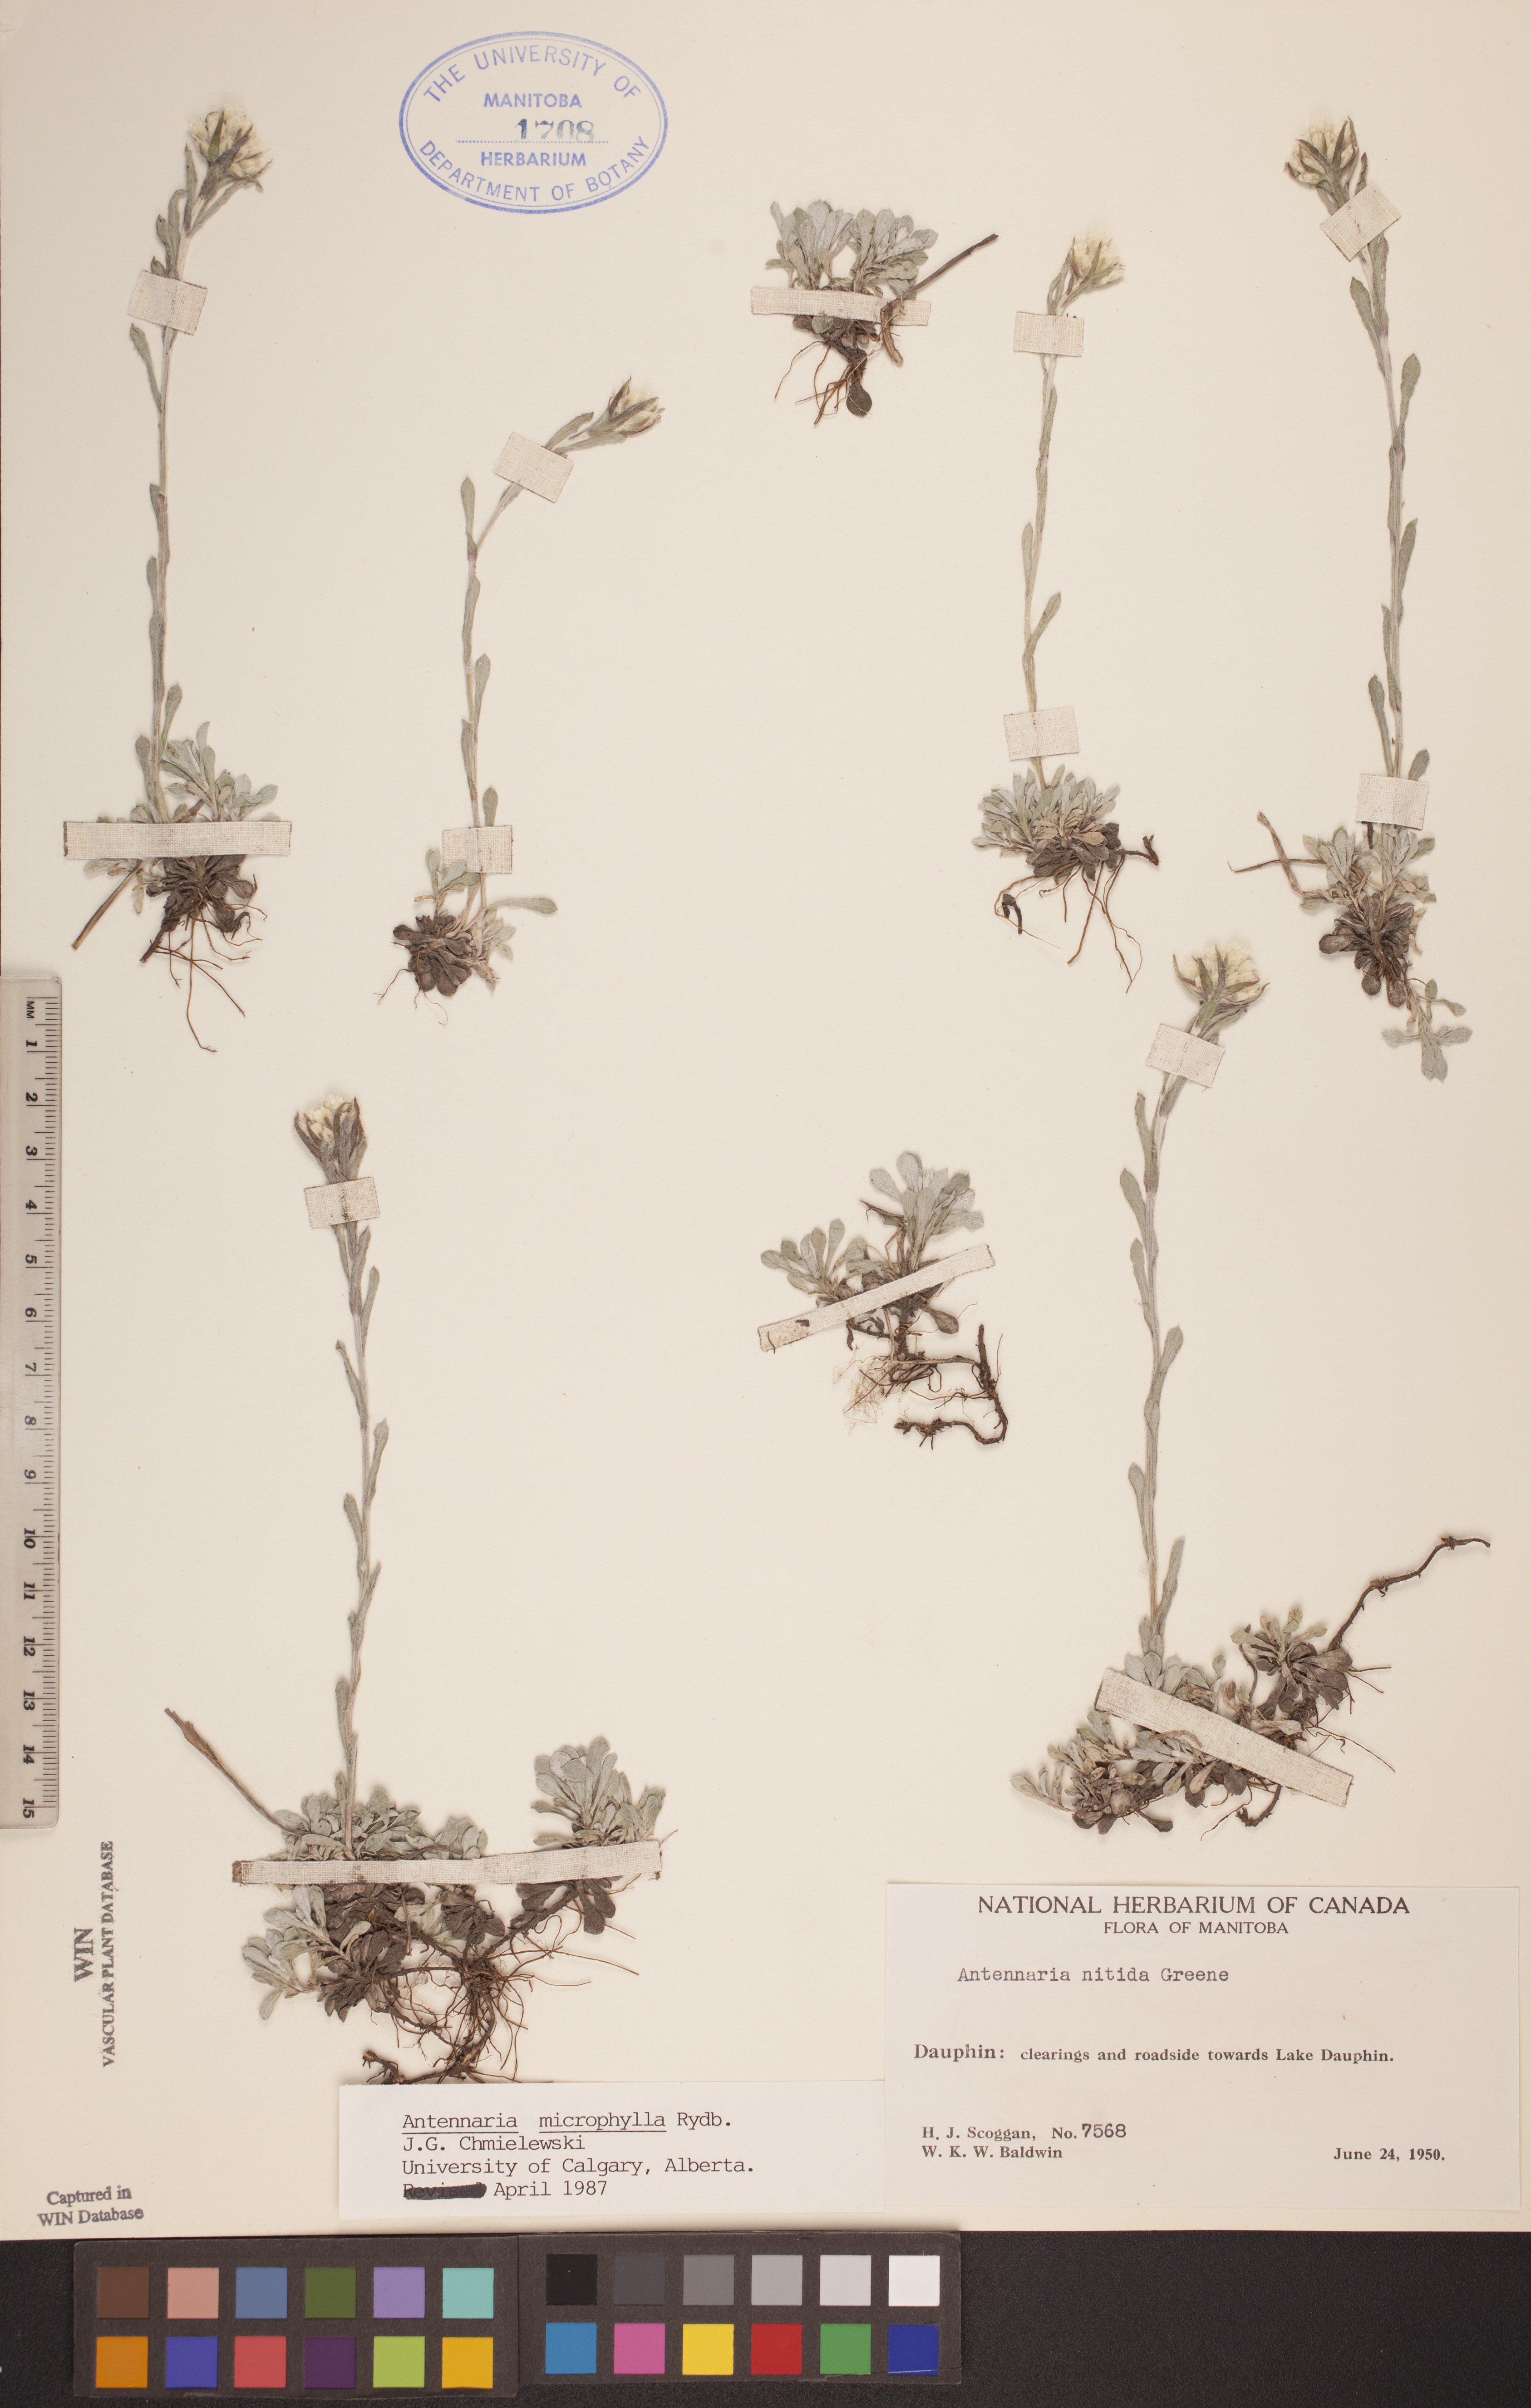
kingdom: Plantae
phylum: Tracheophyta
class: Magnoliopsida
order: Asterales
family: Asteraceae
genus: Antennaria
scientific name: Antennaria microphylla
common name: Littleleaf pussytoes
